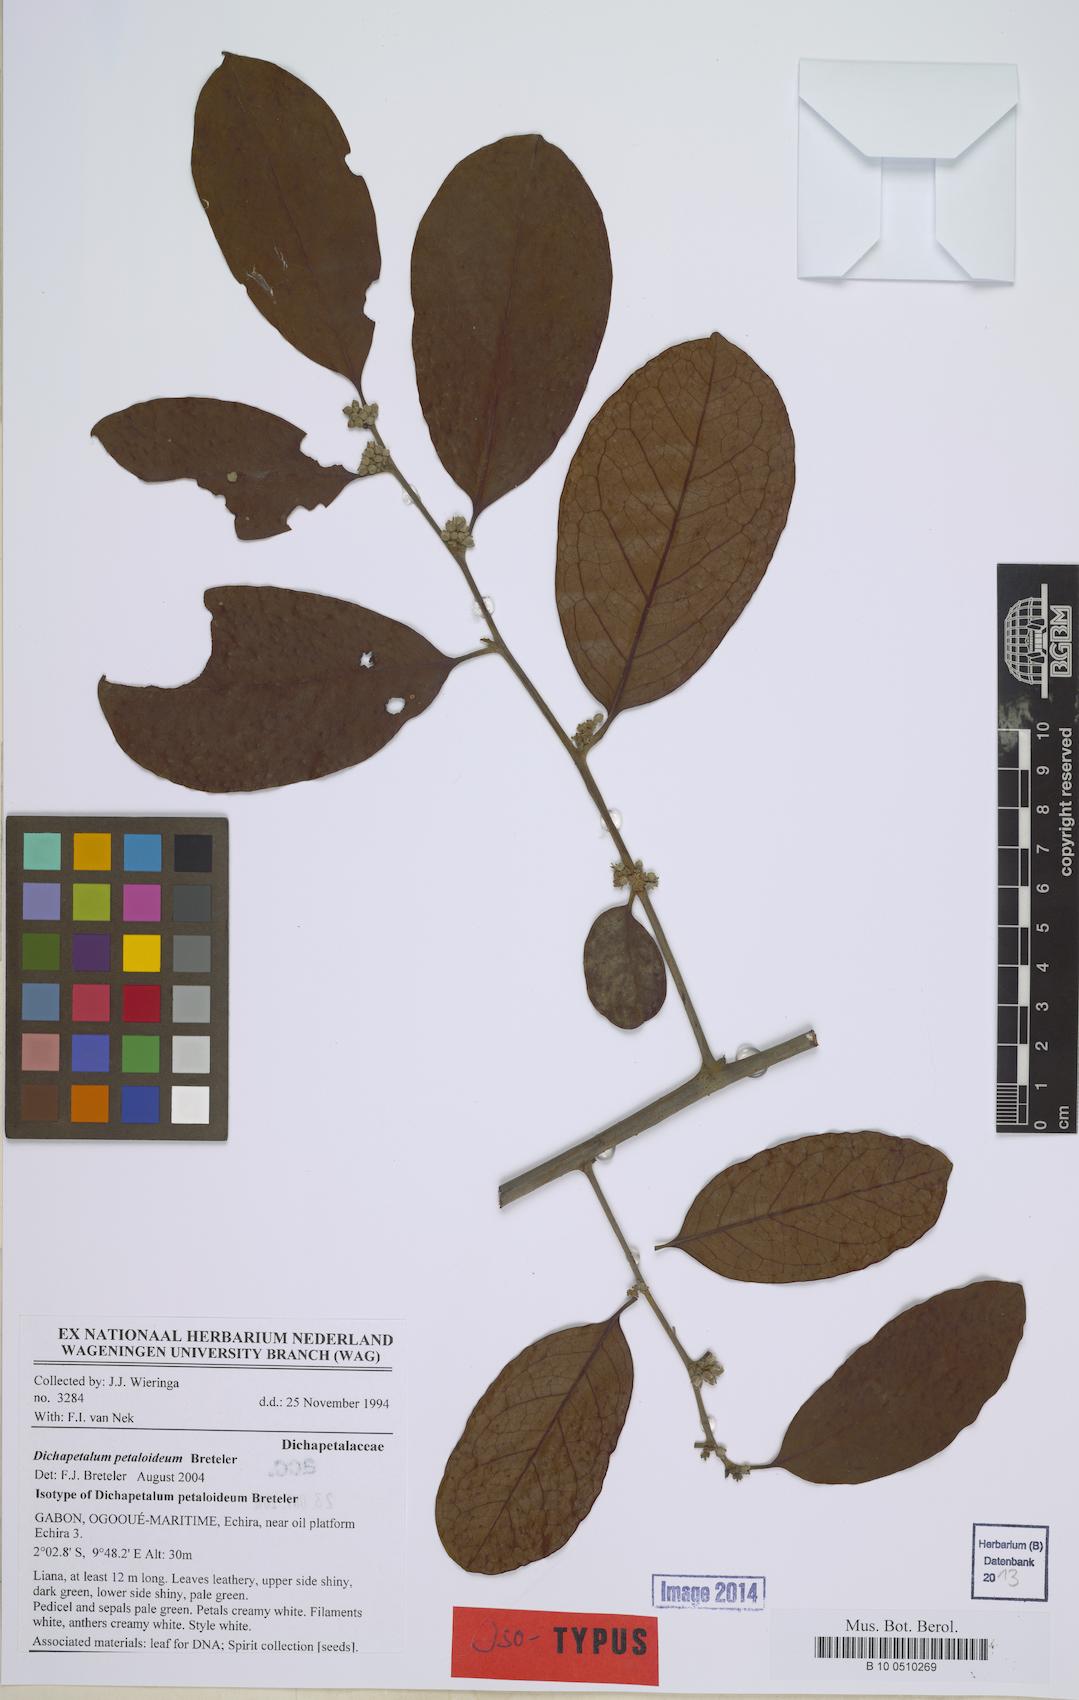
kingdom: Plantae
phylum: Tracheophyta
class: Magnoliopsida
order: Malpighiales
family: Dichapetalaceae
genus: Dichapetalum
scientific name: Dichapetalum petaloideum
